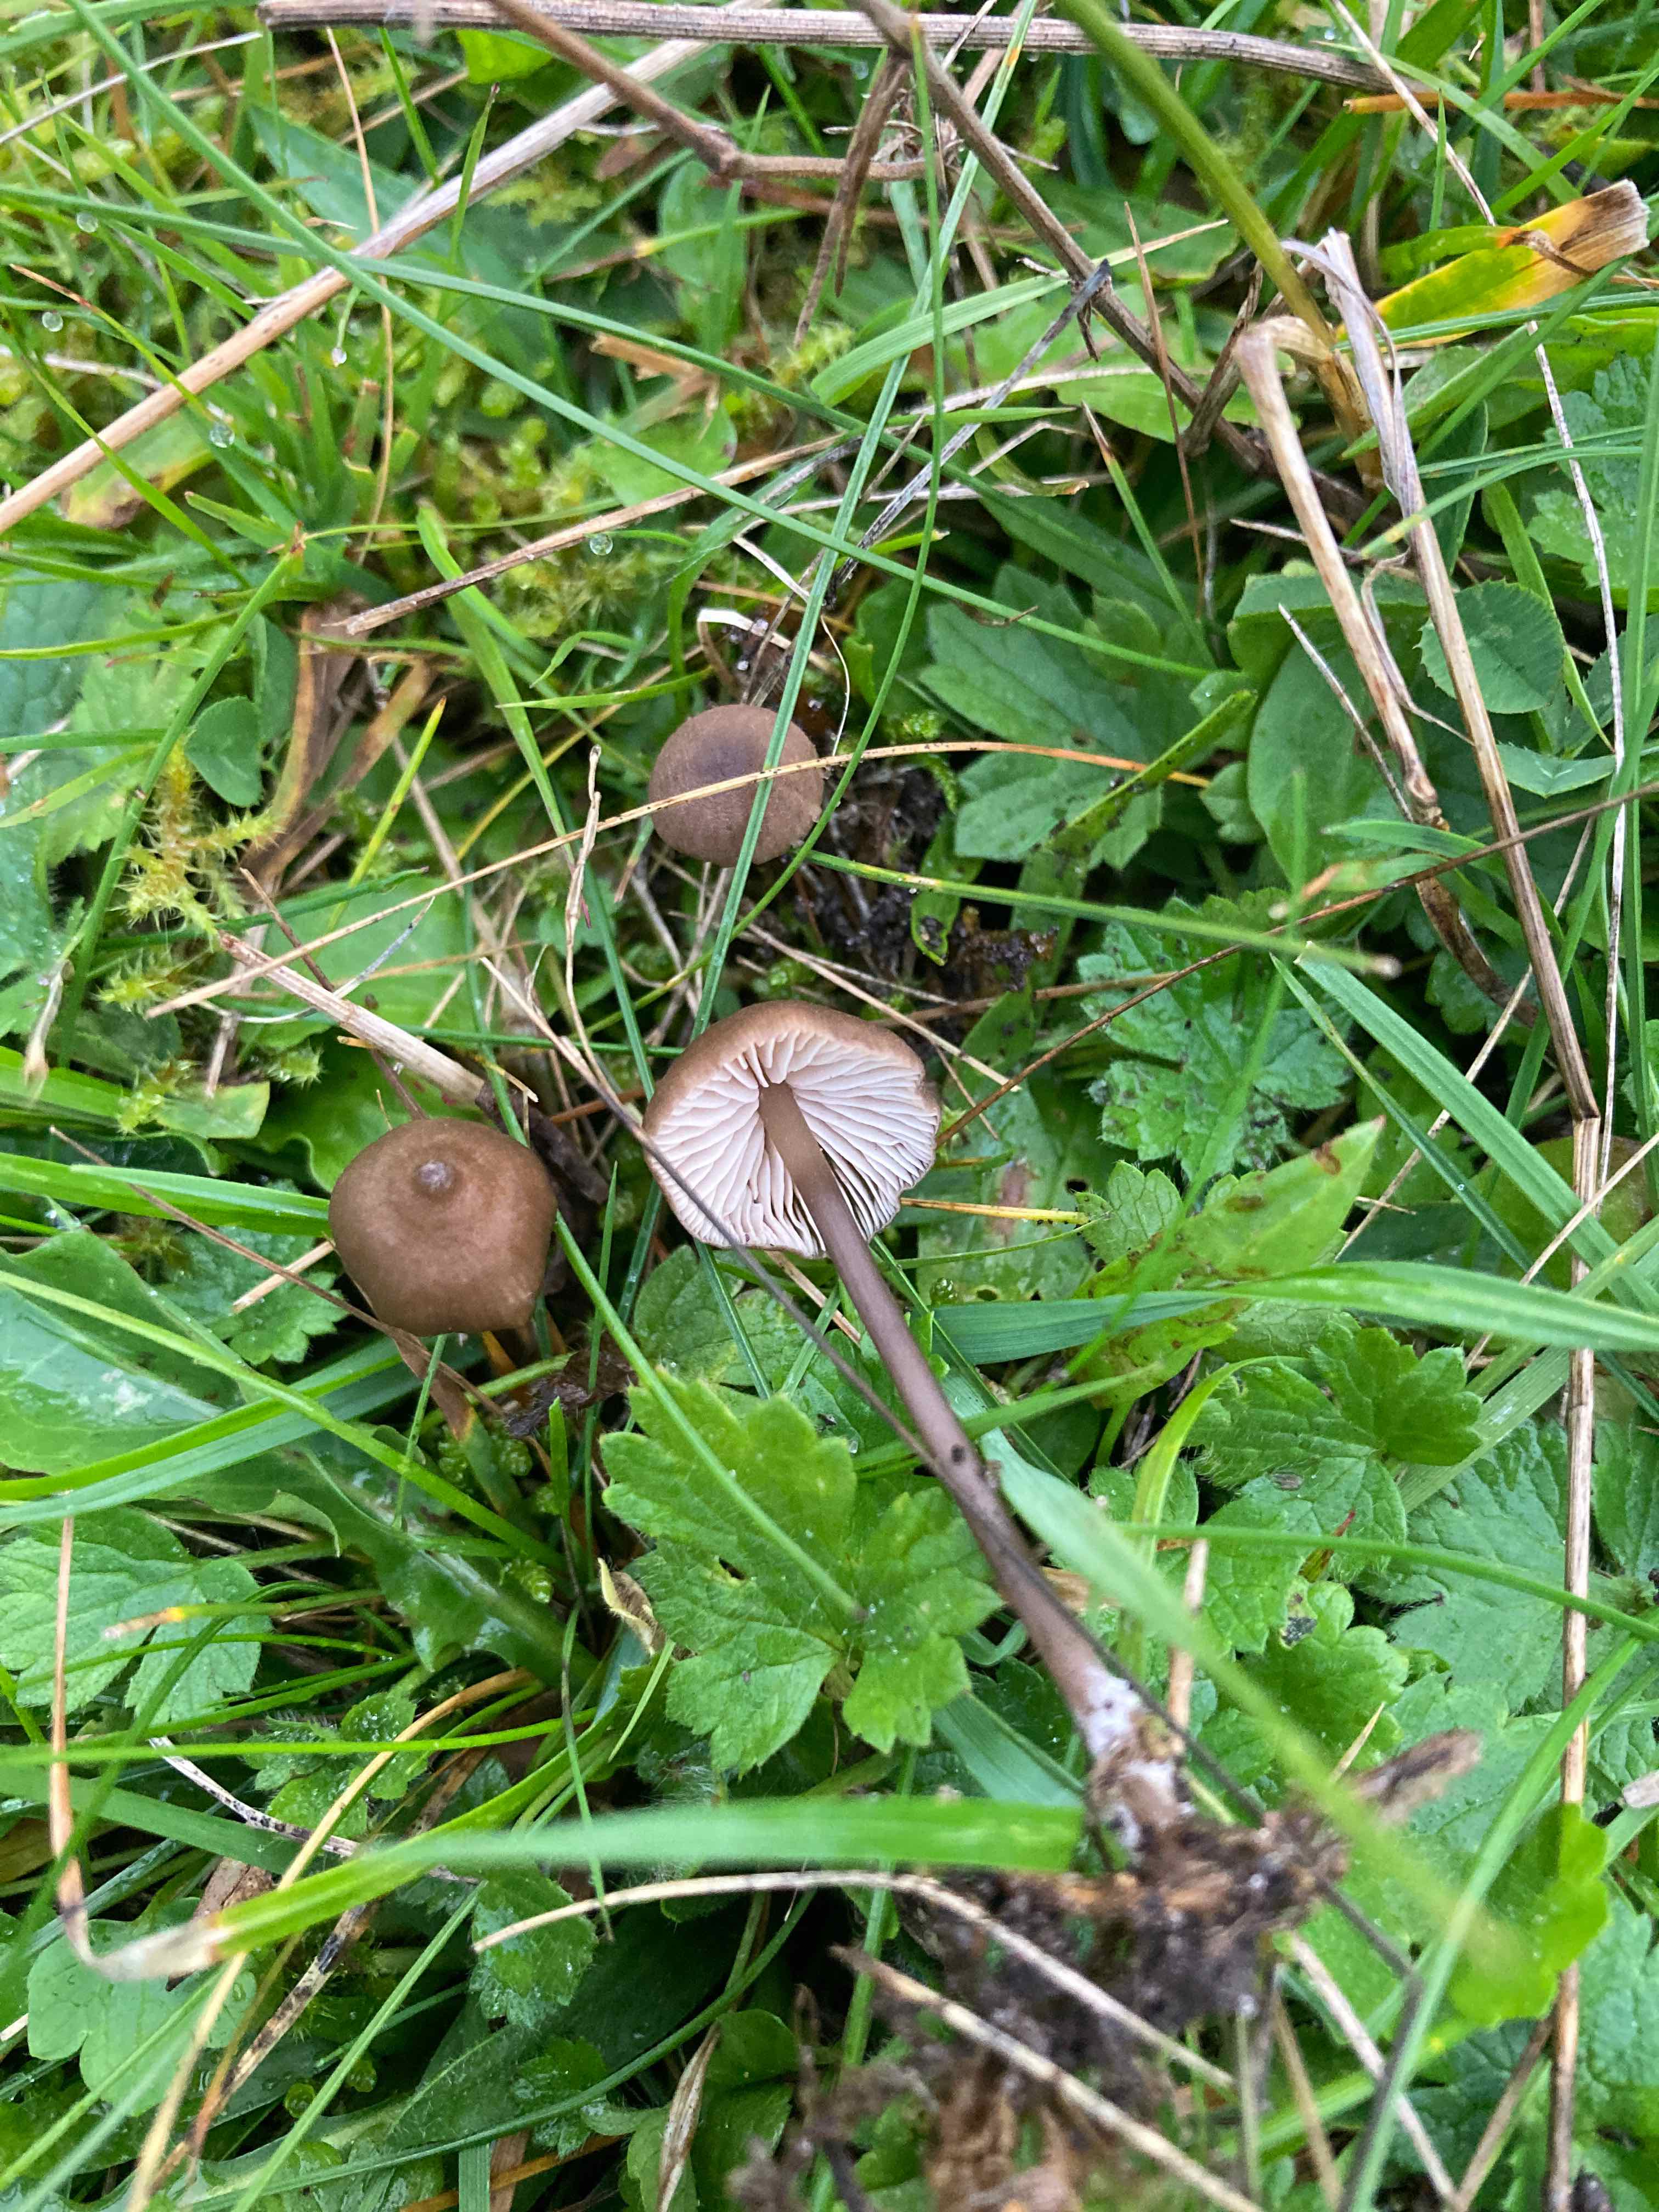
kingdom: Fungi
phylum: Basidiomycota
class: Agaricomycetes
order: Agaricales
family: Entolomataceae
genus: Entoloma
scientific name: Entoloma infula
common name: hvidbladet rødblad
